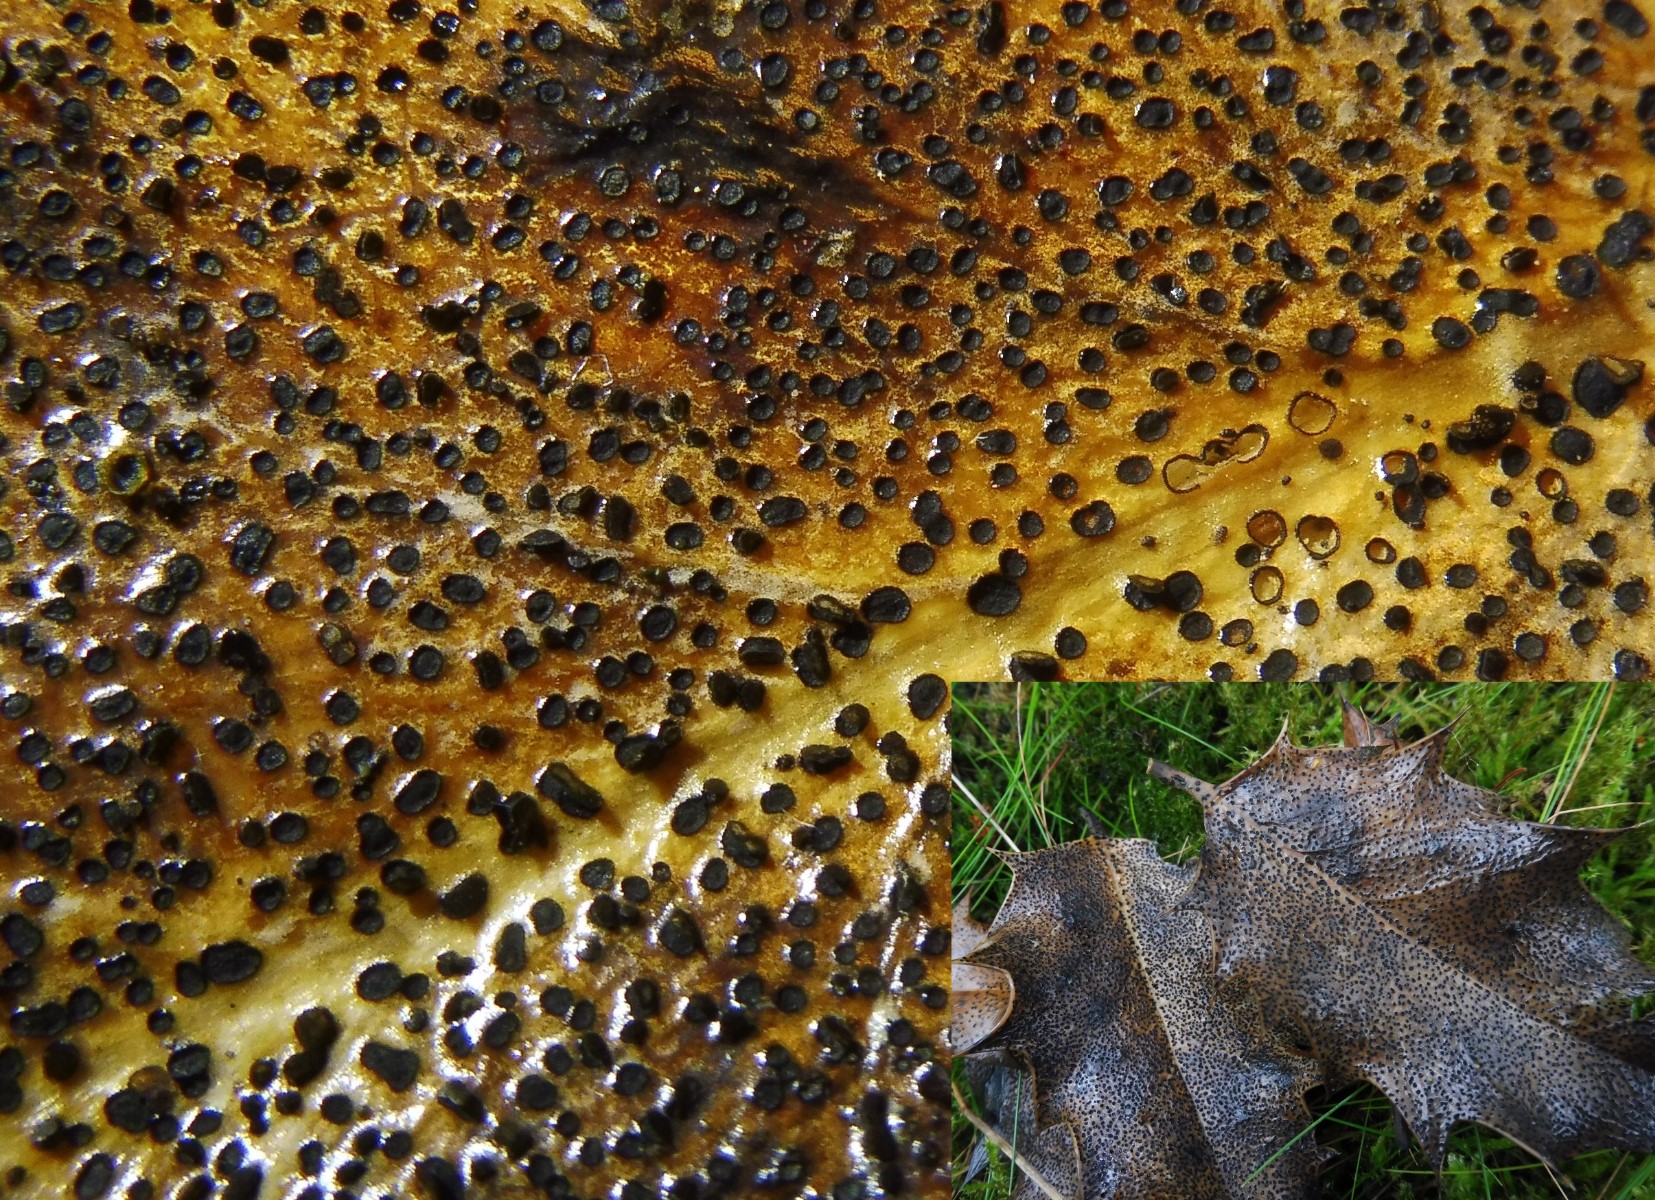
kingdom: Fungi
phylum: Ascomycota
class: Leotiomycetes
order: Helotiales
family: Cenangiaceae
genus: Trochila
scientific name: Trochila ilicina
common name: kristtorn-lågskive
